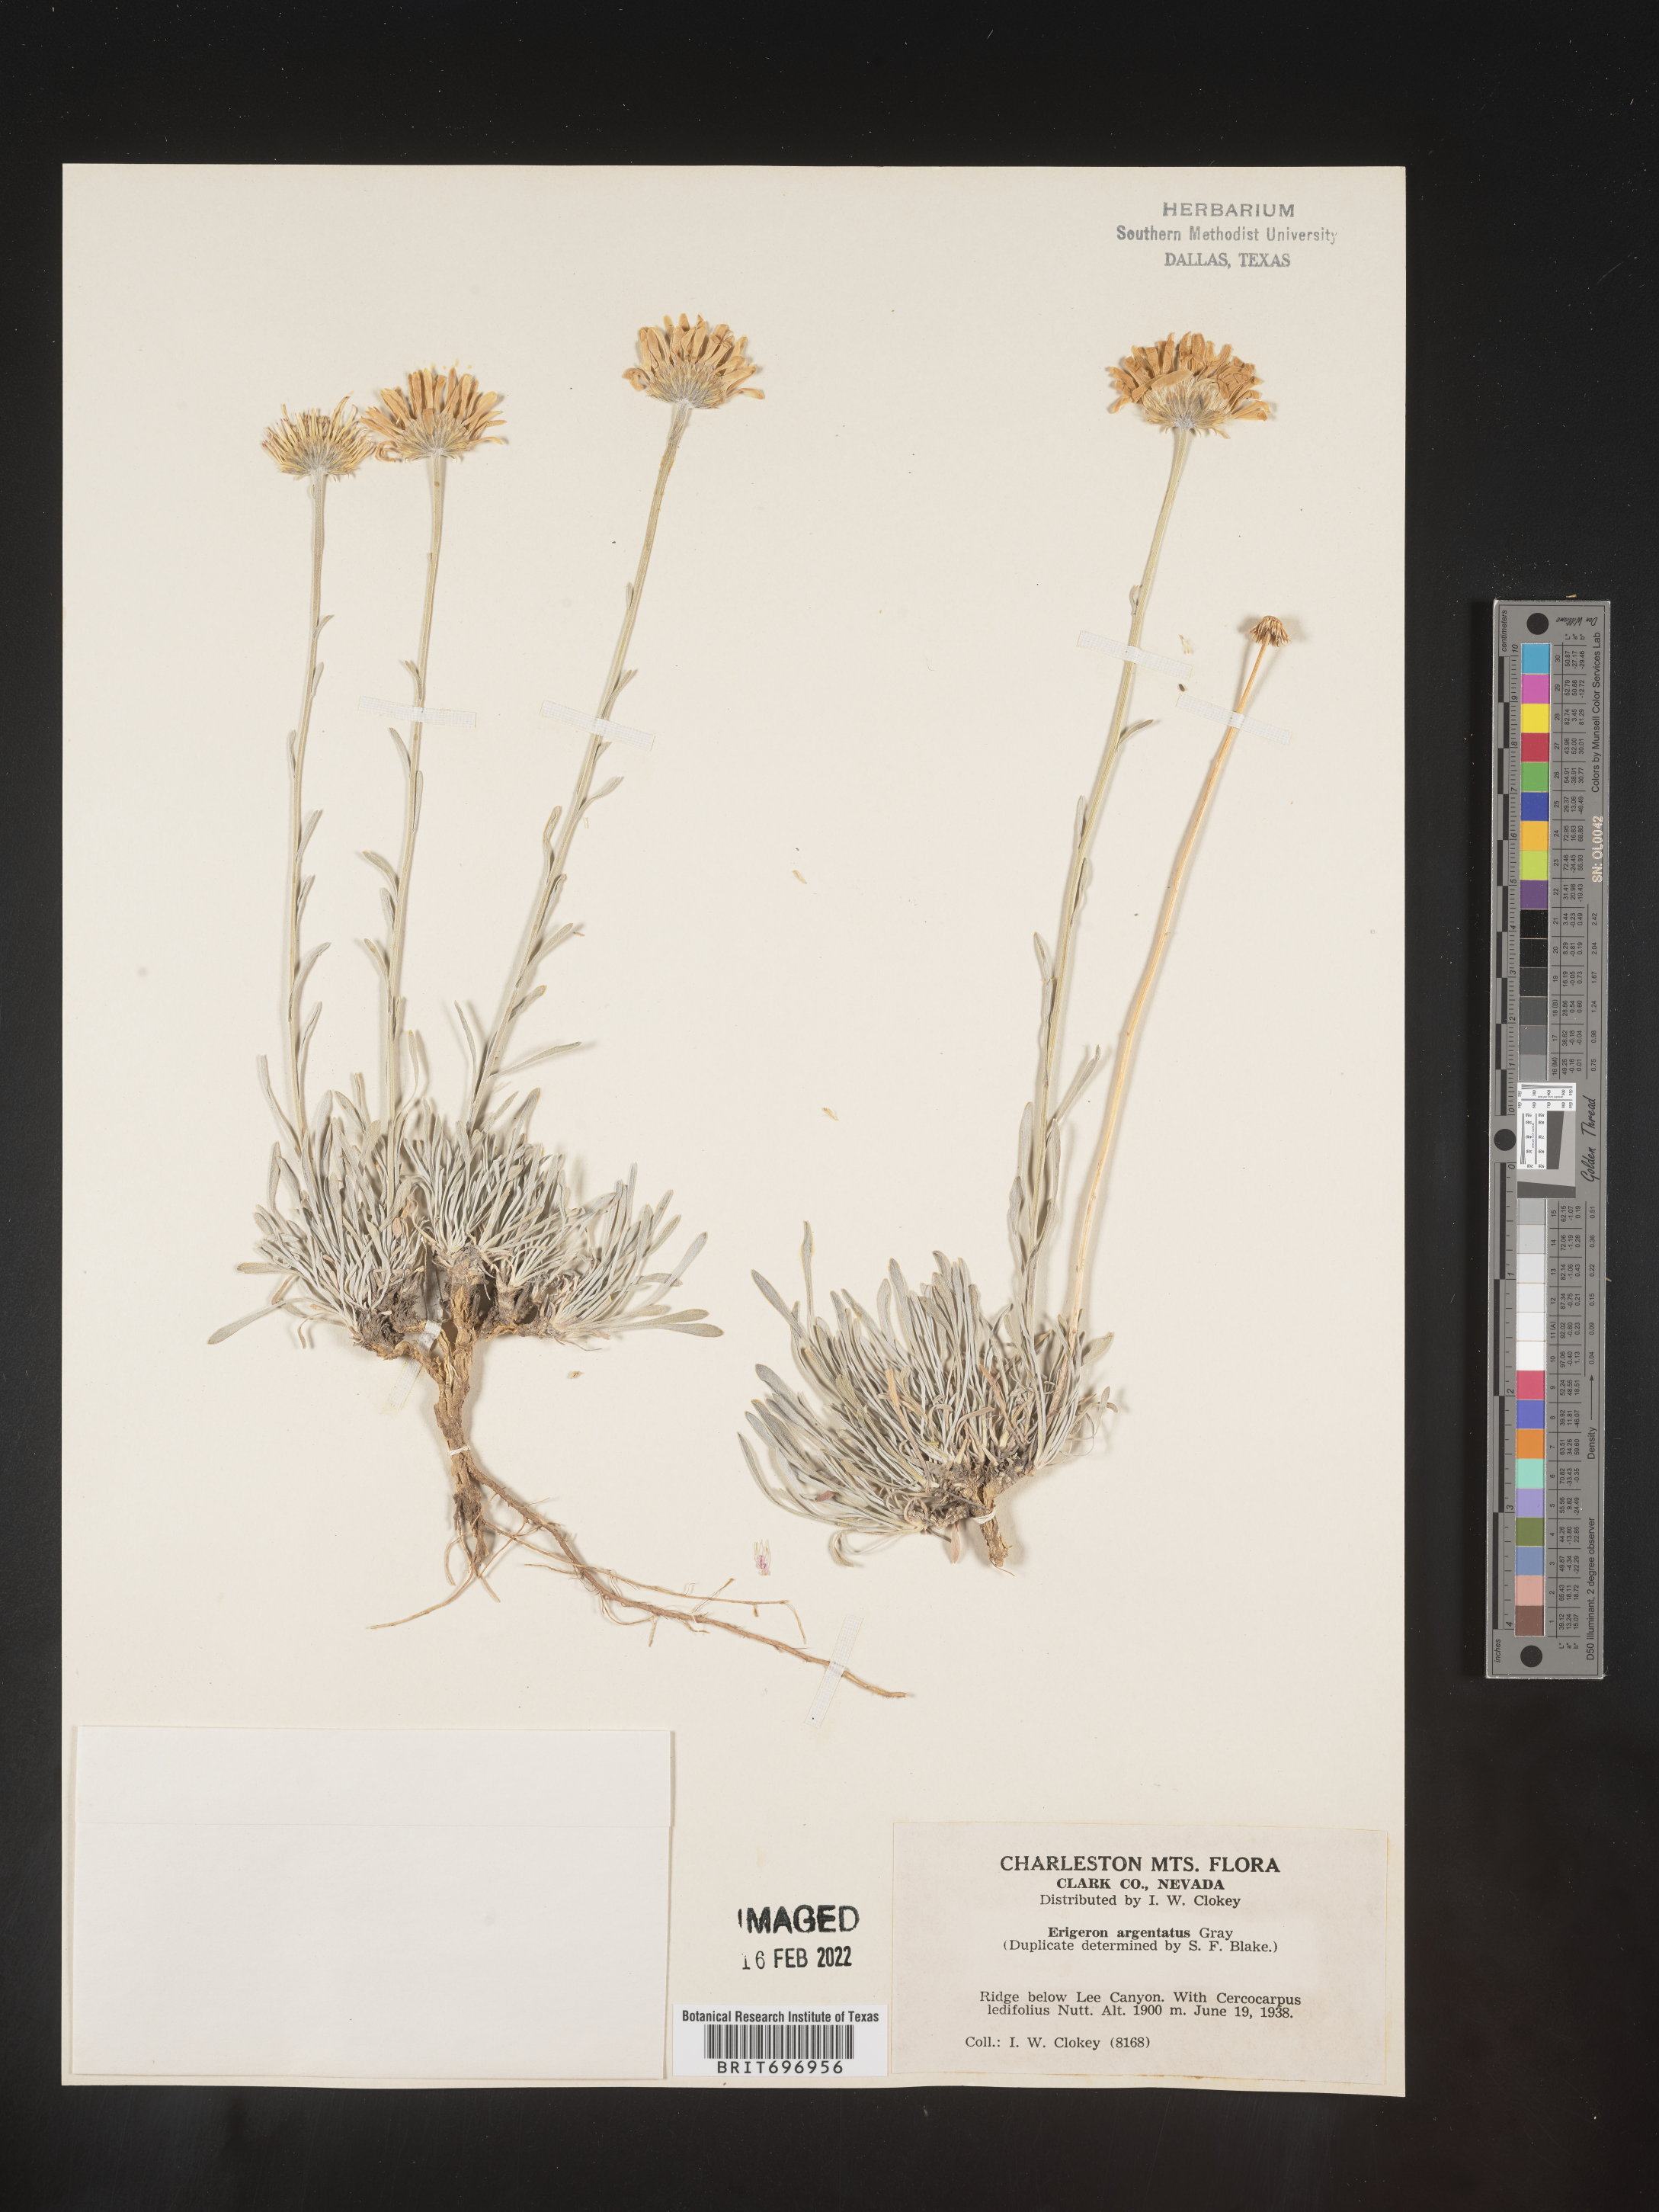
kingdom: Plantae
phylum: Tracheophyta
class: Magnoliopsida
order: Asterales
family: Asteraceae
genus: Erigeron
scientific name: Erigeron argentatus
